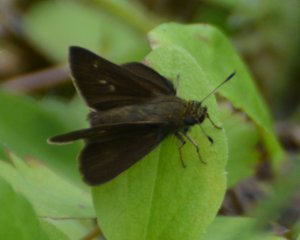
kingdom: Animalia
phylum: Arthropoda
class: Insecta
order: Lepidoptera
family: Hesperiidae
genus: Euphyes
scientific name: Euphyes vestris
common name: Dun Skipper
